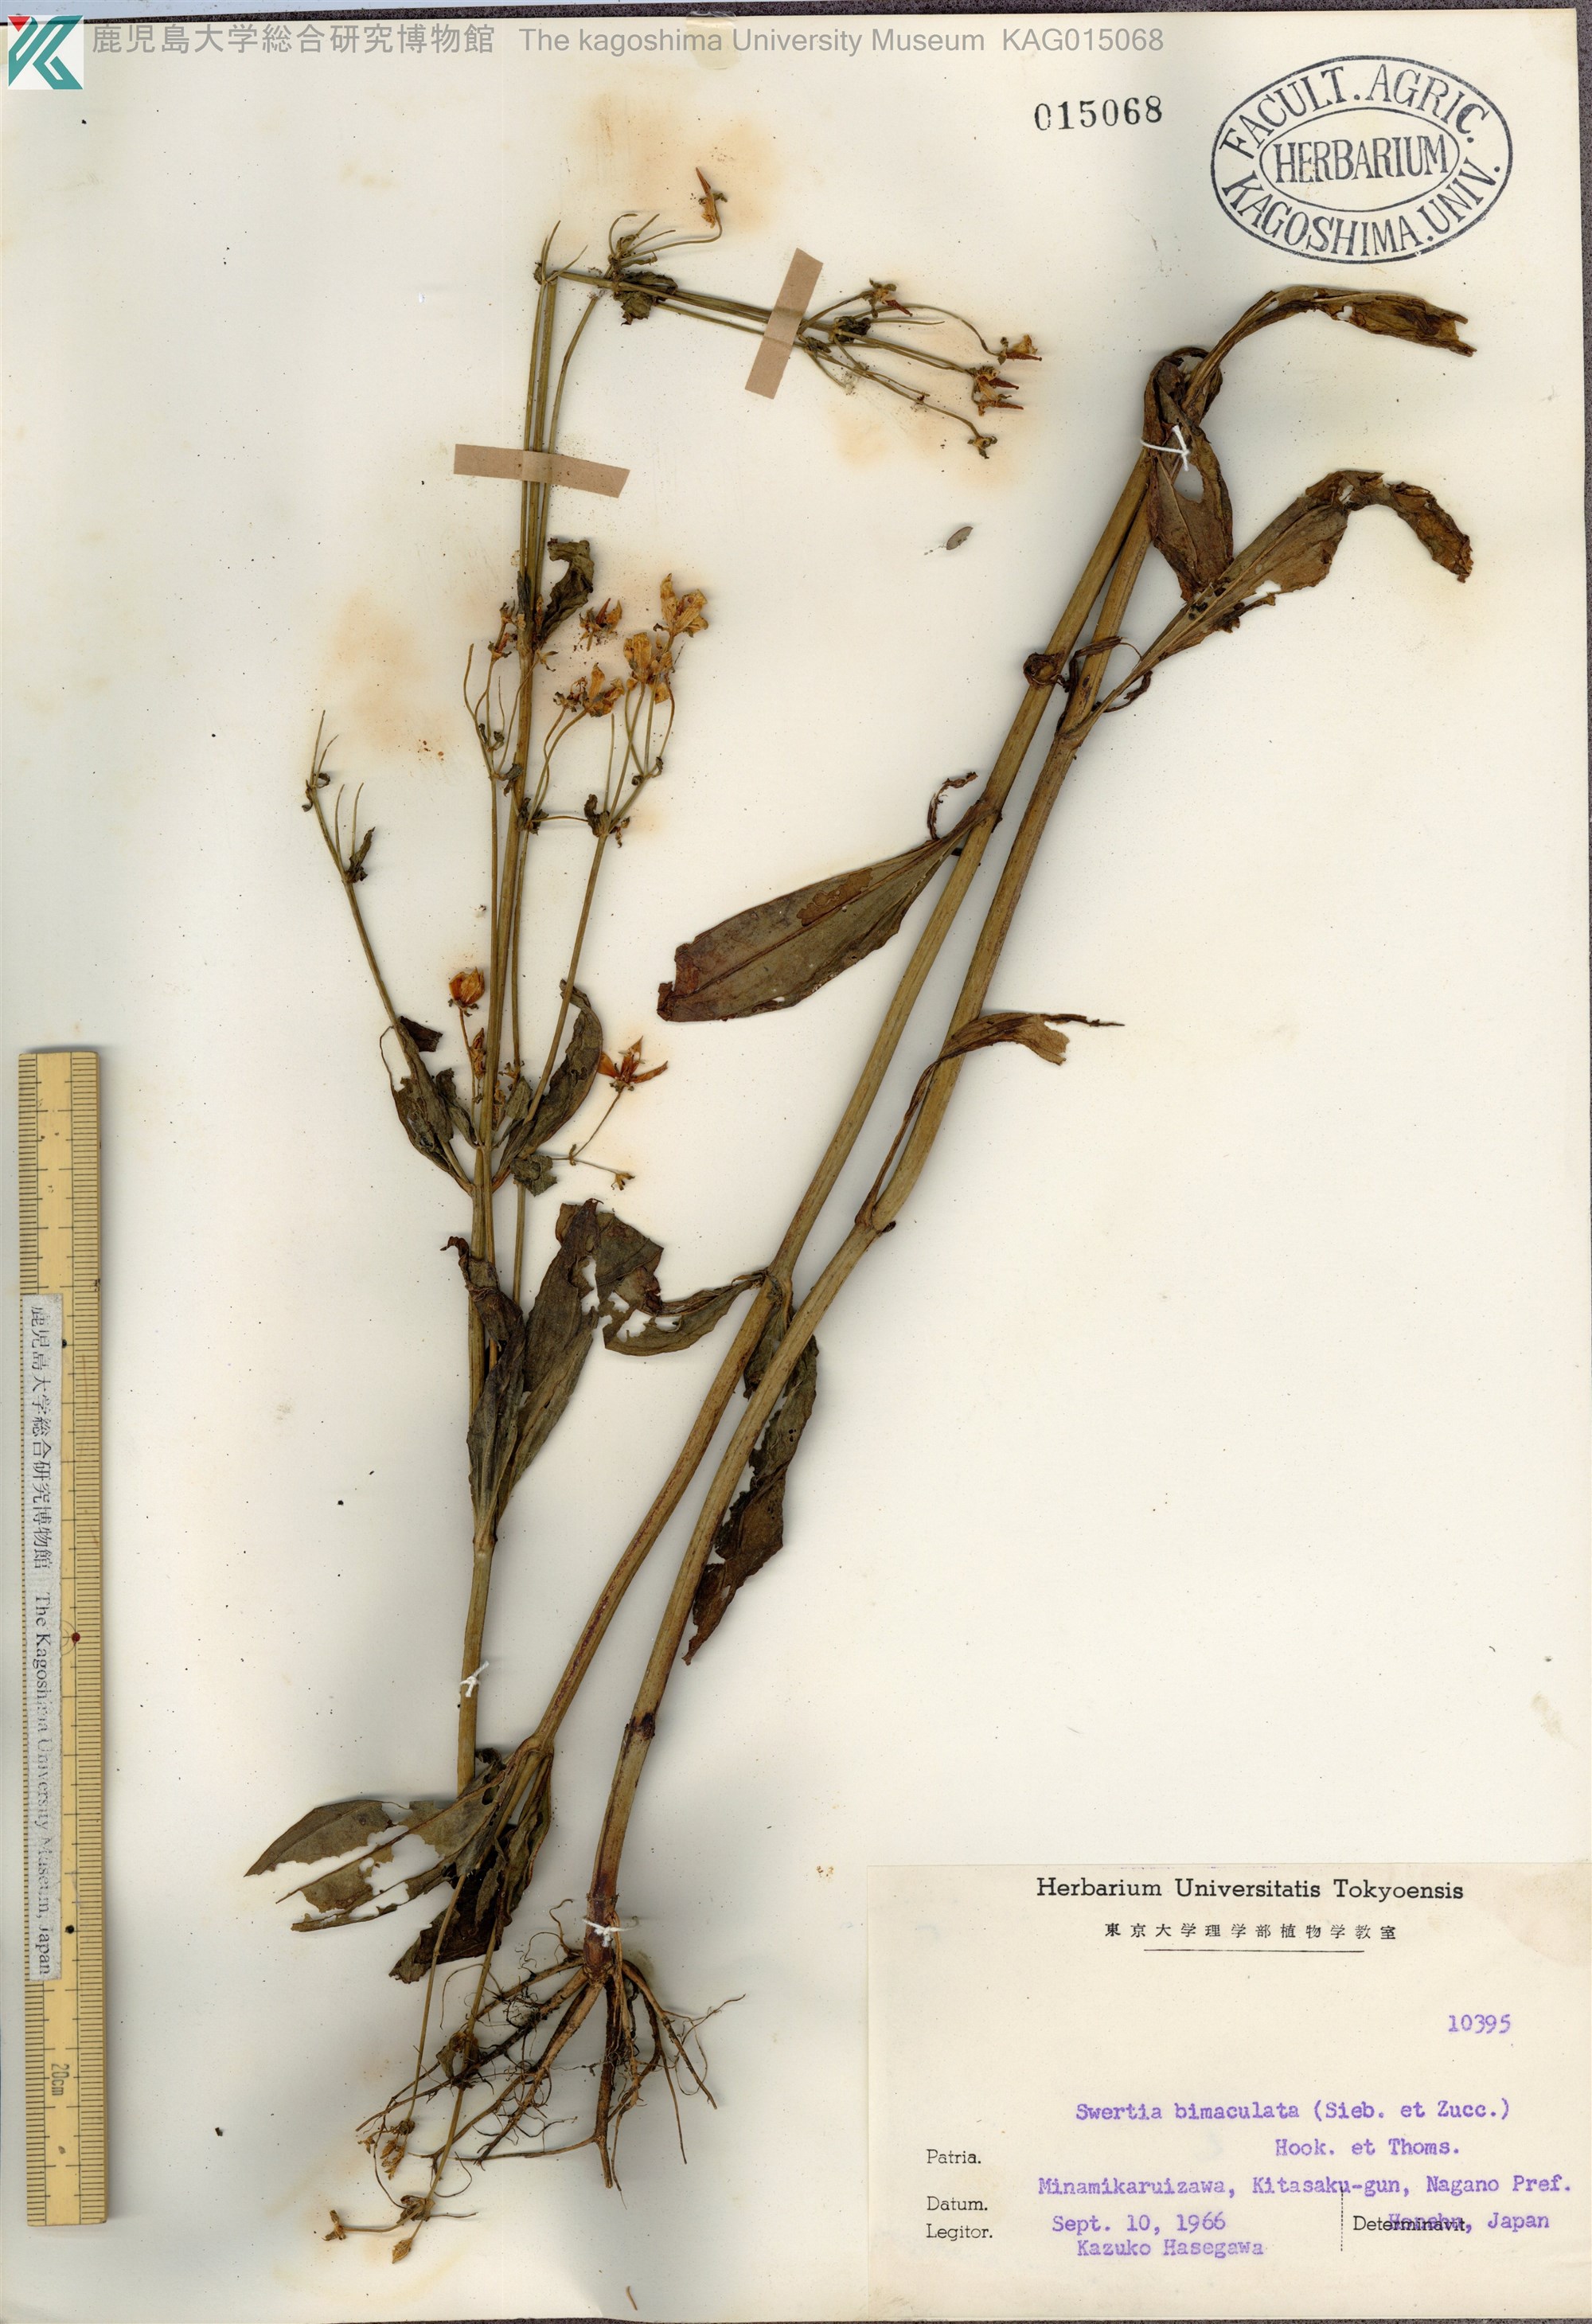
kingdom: Plantae
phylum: Tracheophyta
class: Magnoliopsida
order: Gentianales
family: Gentianaceae
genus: Swertia
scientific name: Swertia bimaculata
